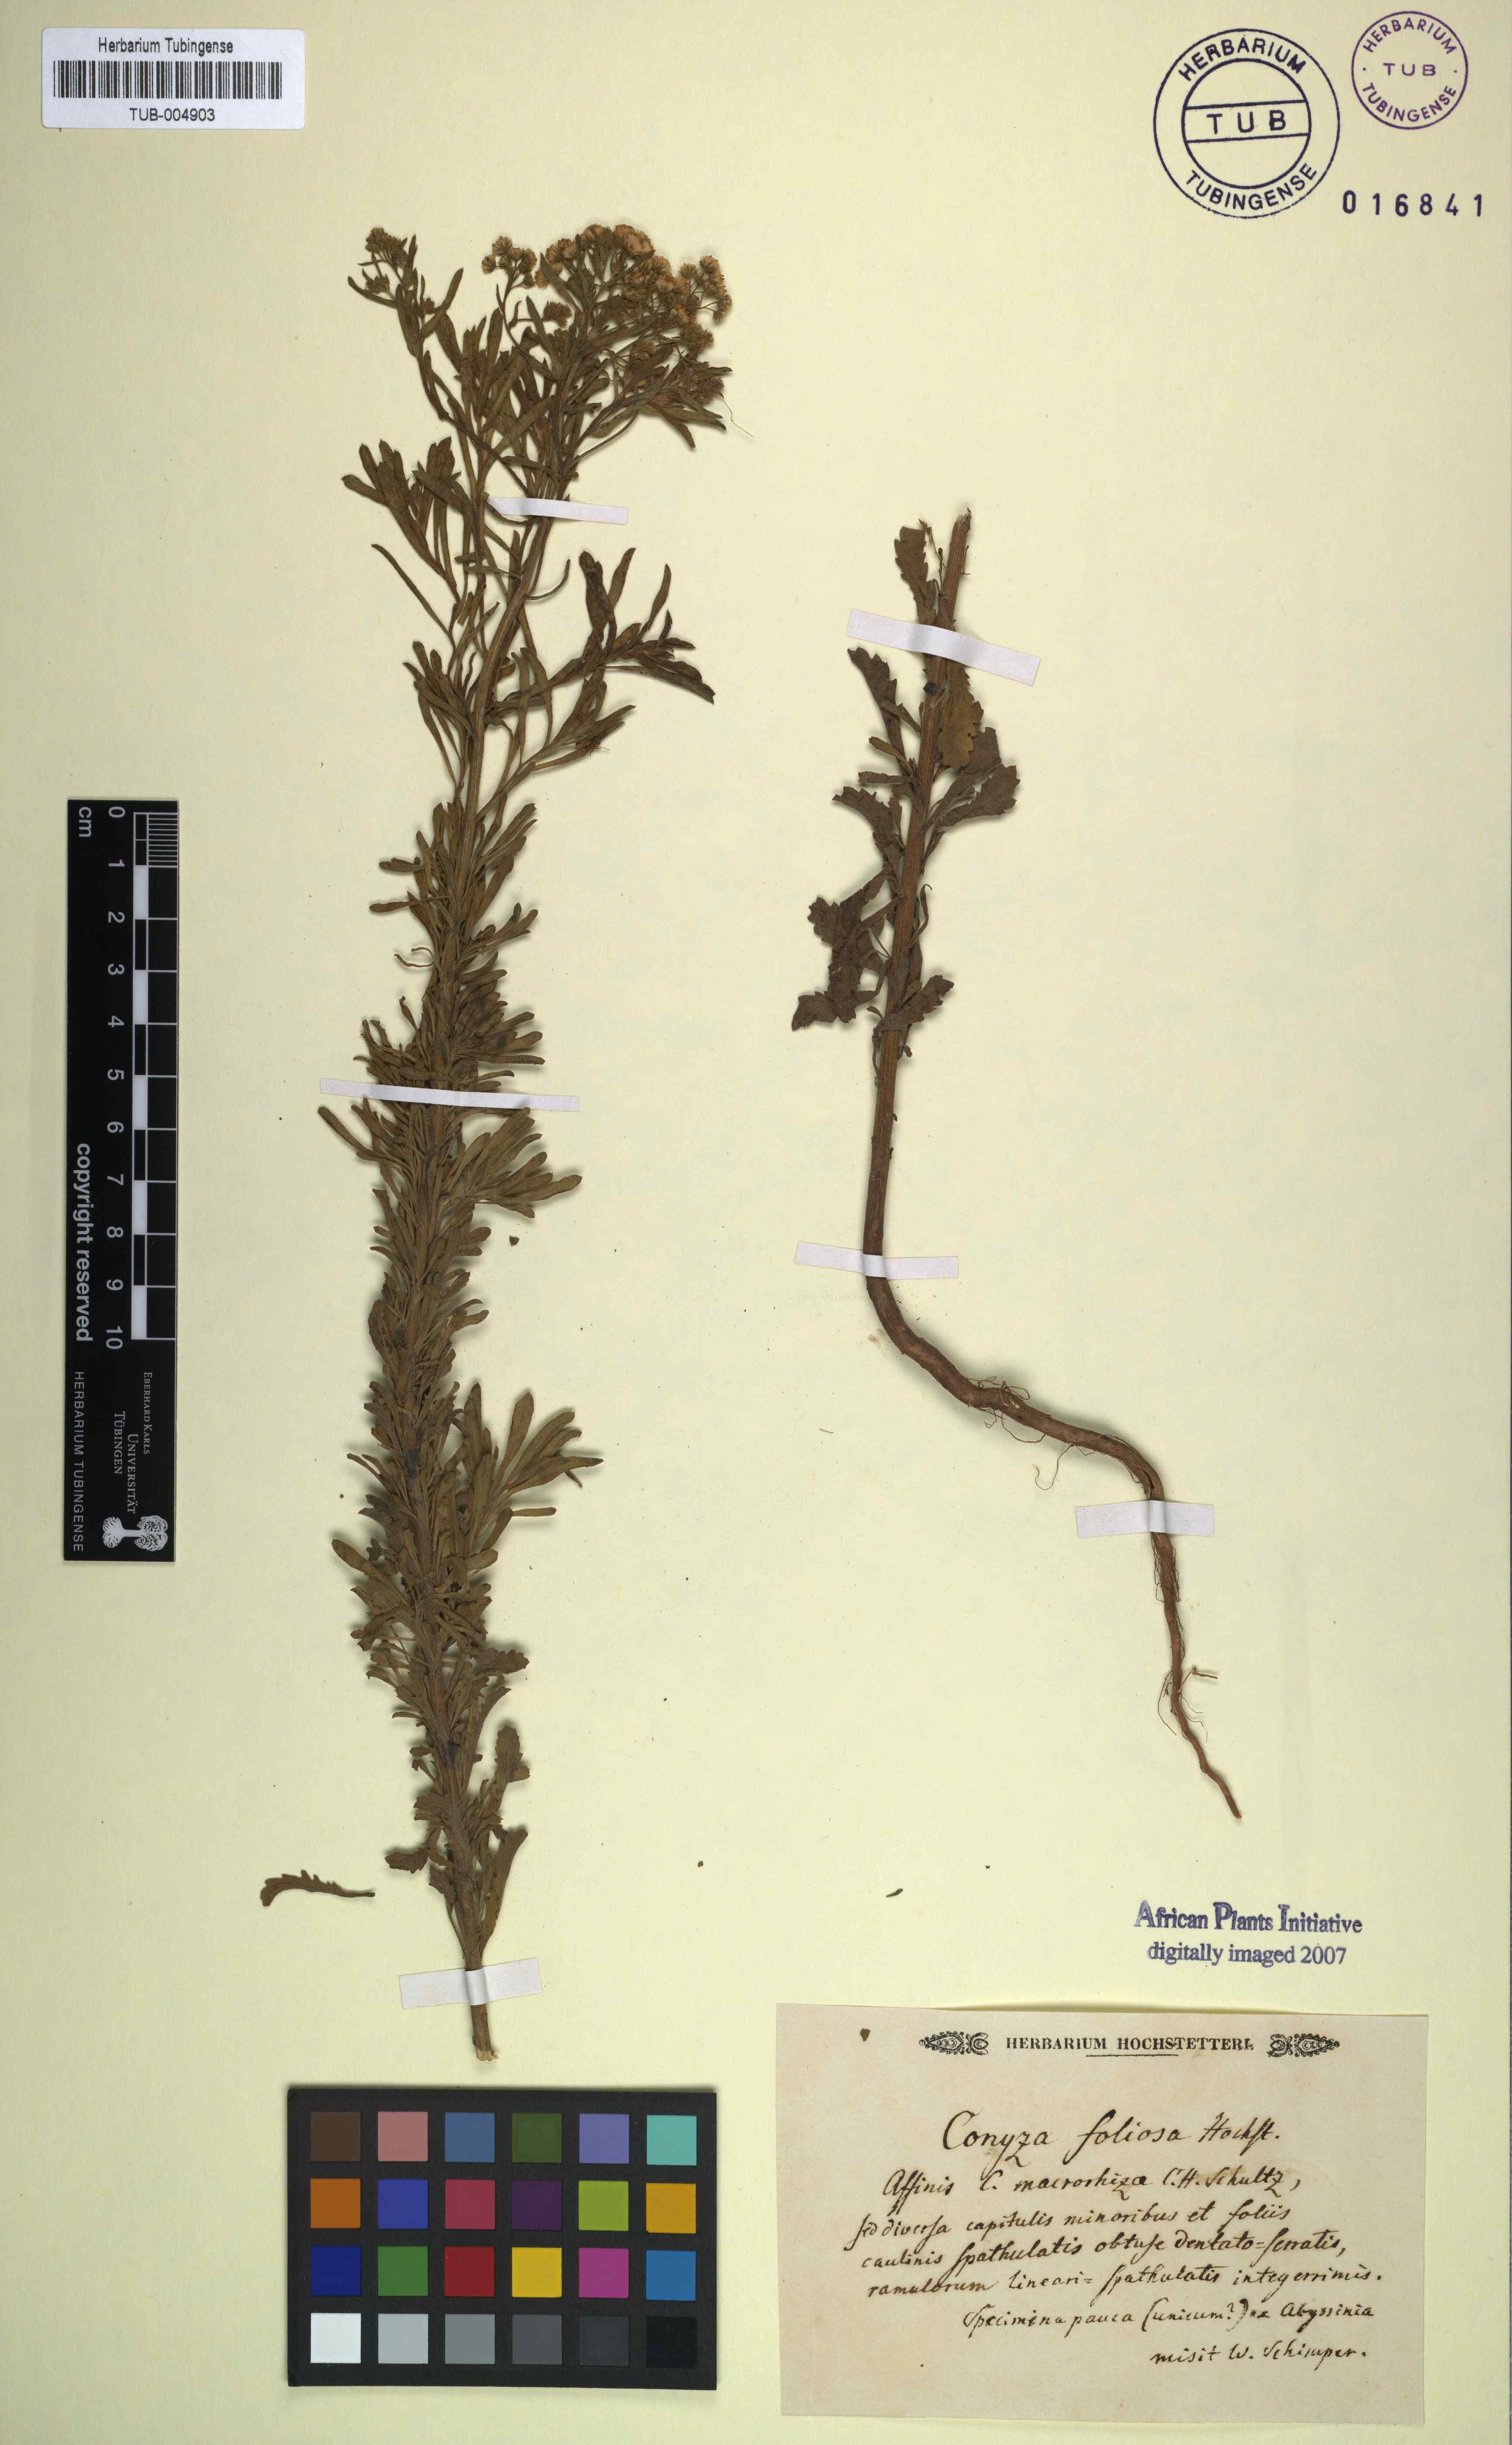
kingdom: Plantae
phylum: Tracheophyta
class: Magnoliopsida
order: Asterales
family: Asteraceae
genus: Erigeron
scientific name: Erigeron foliosus
